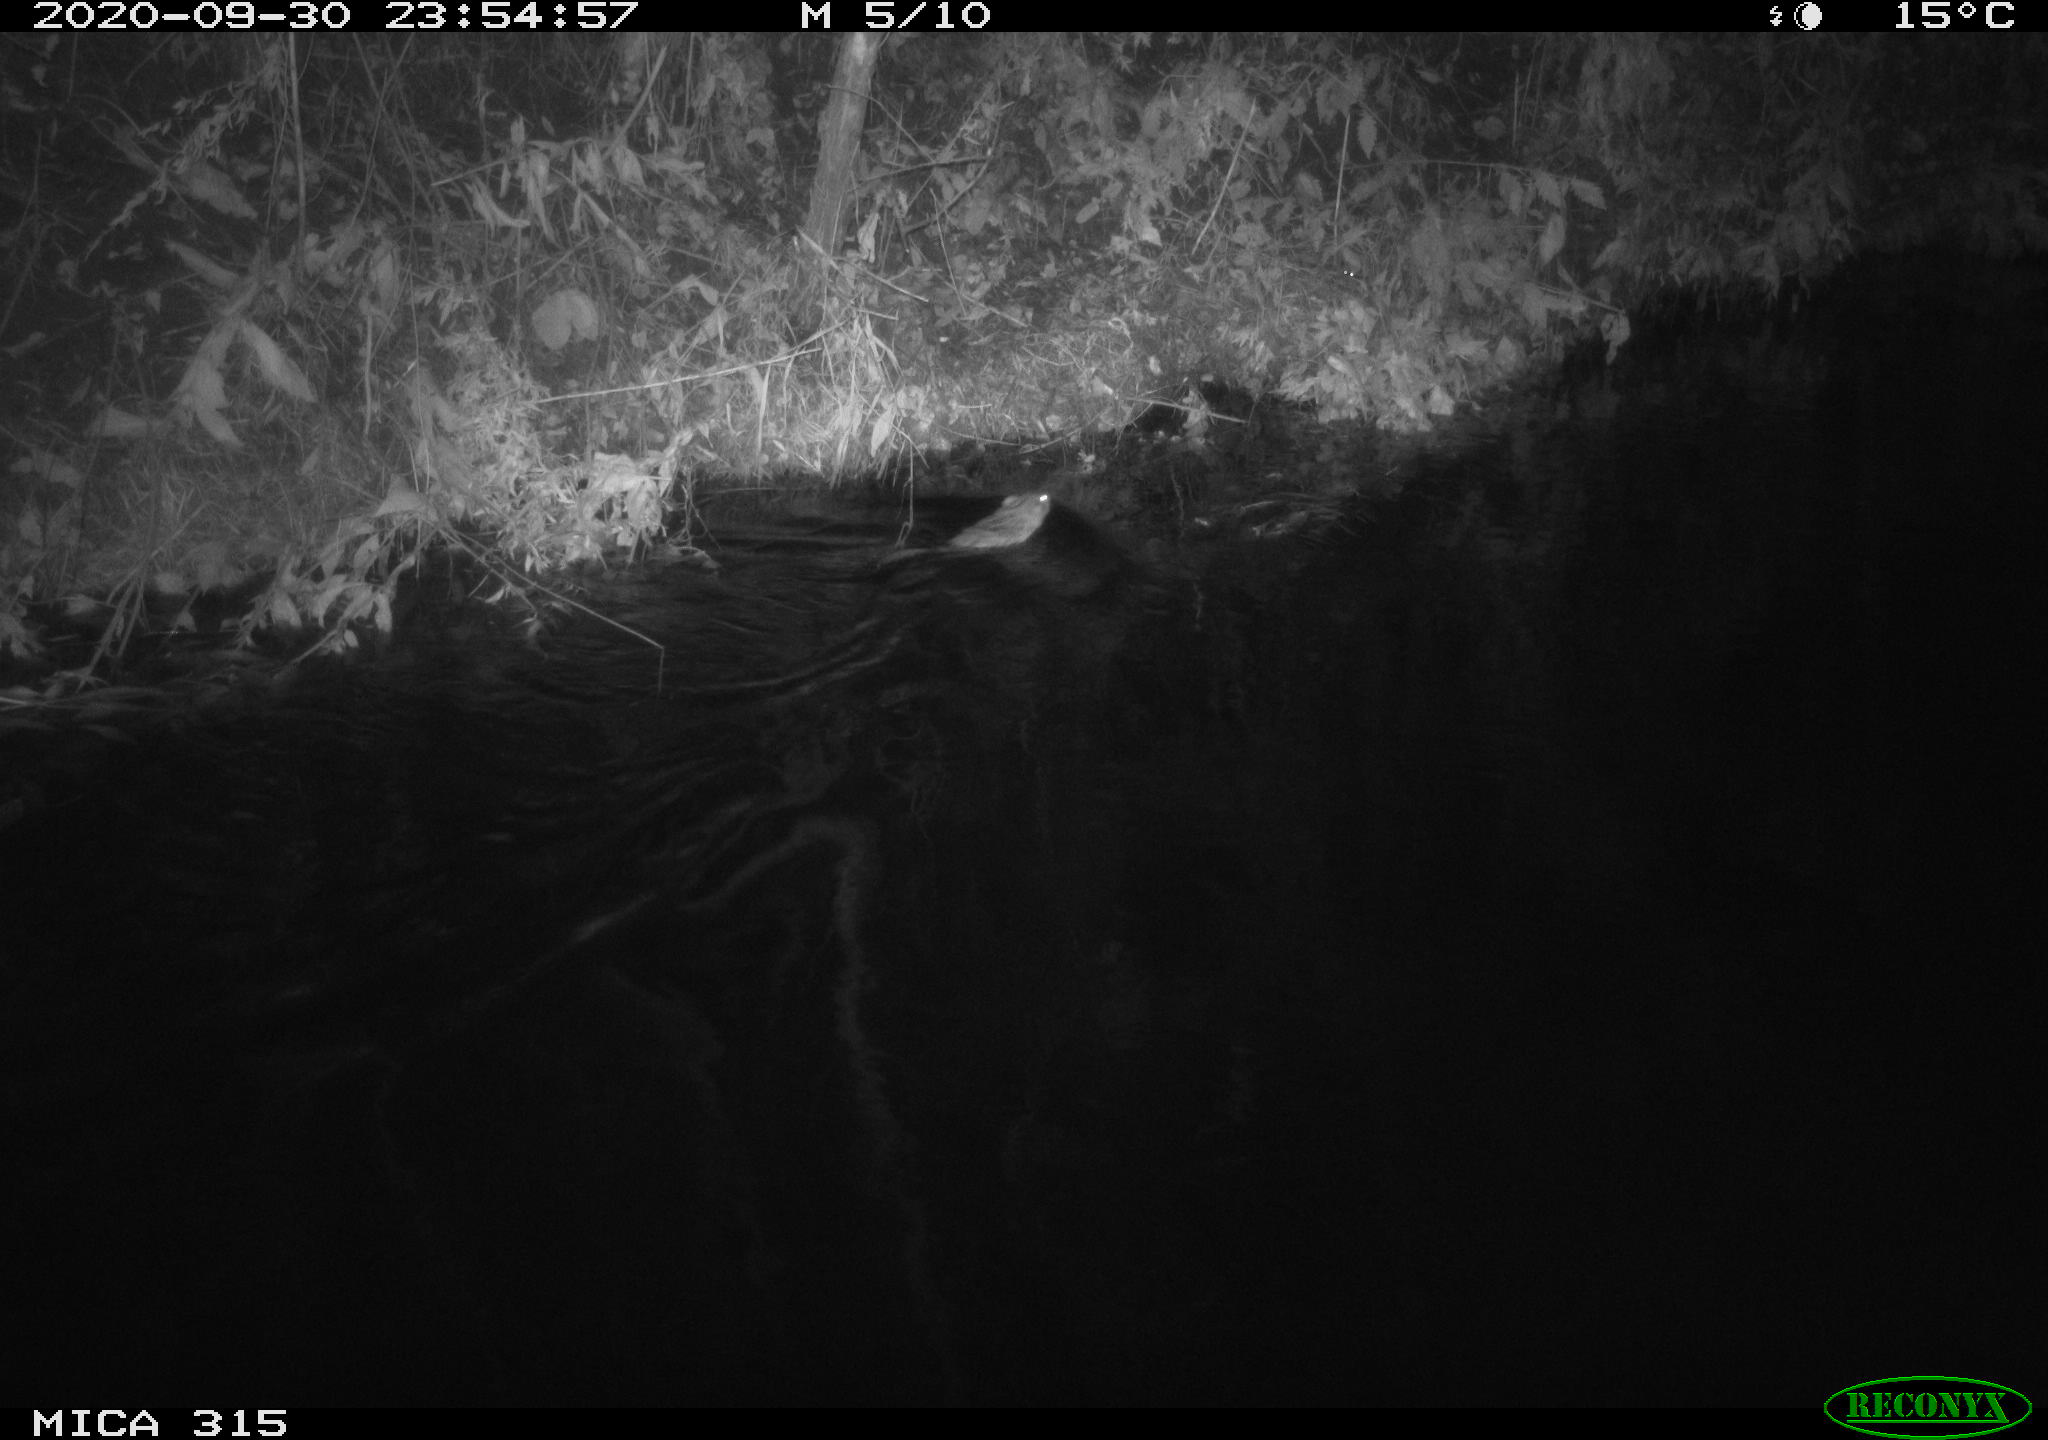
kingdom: Animalia
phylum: Chordata
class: Mammalia
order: Rodentia
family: Cricetidae
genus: Ondatra
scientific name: Ondatra zibethicus
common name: Muskrat
